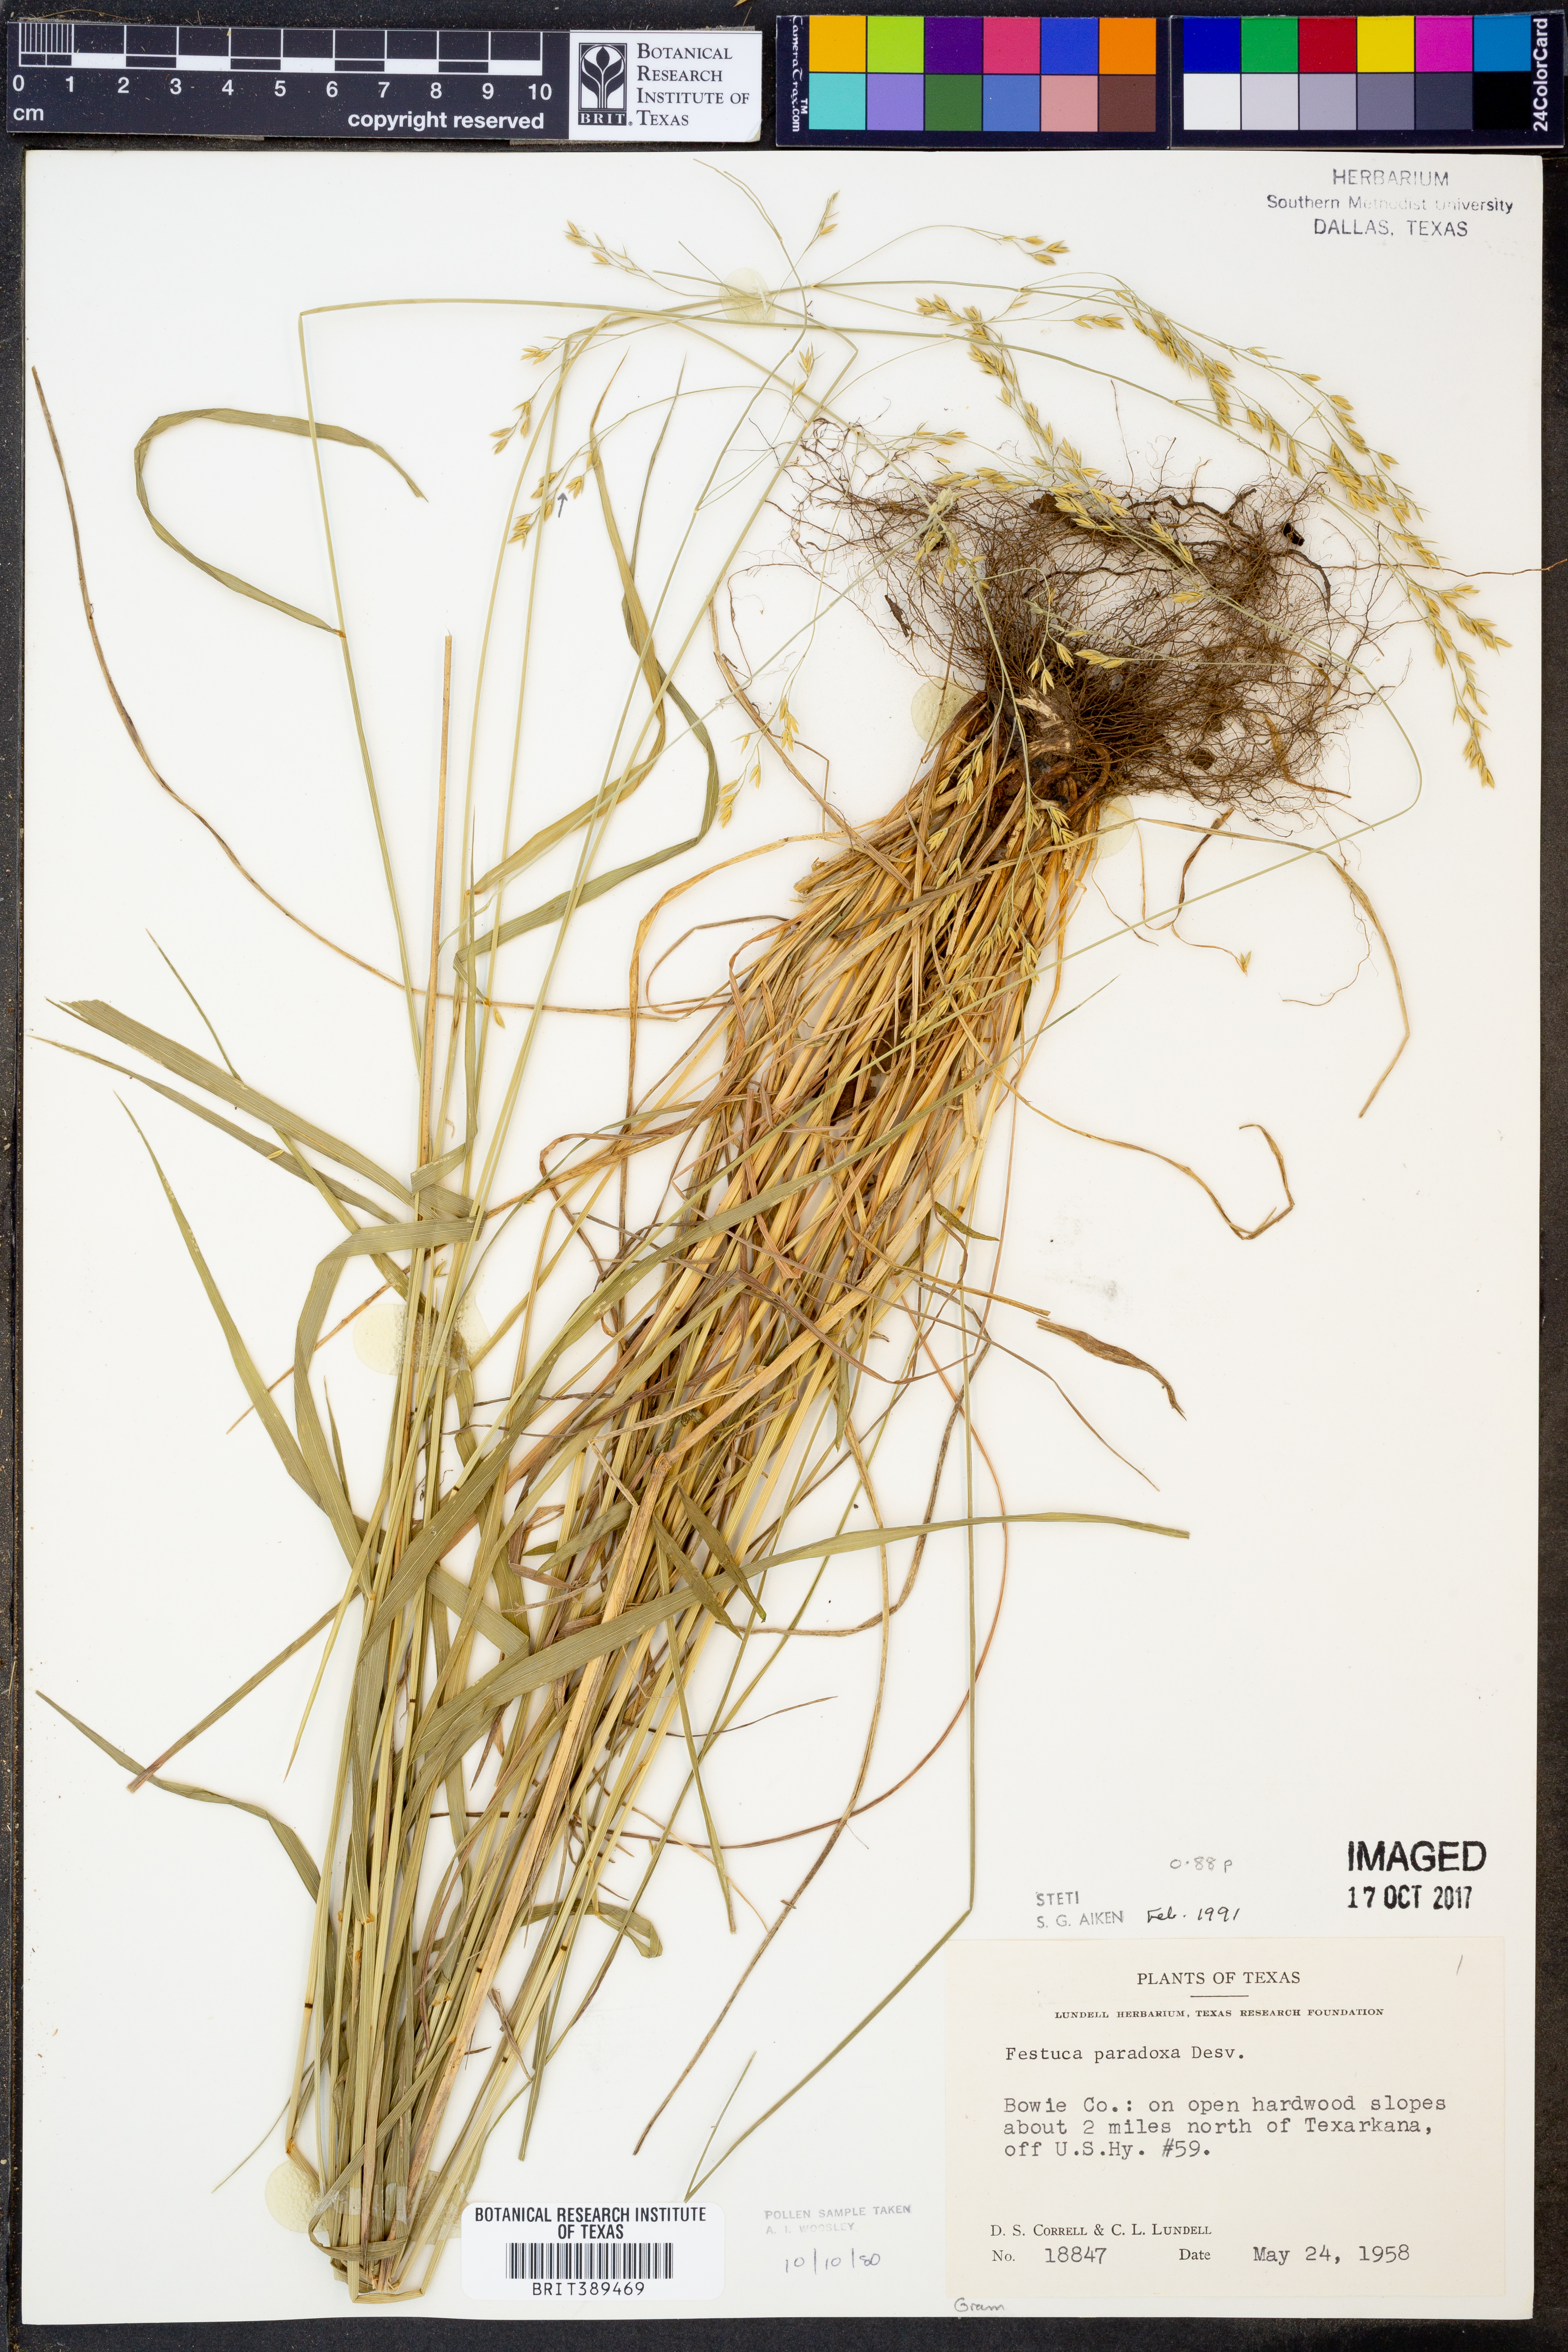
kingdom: Plantae
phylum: Tracheophyta
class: Liliopsida
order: Poales
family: Poaceae
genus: Festuca
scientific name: Festuca paradoxa
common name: Cluster fescue
